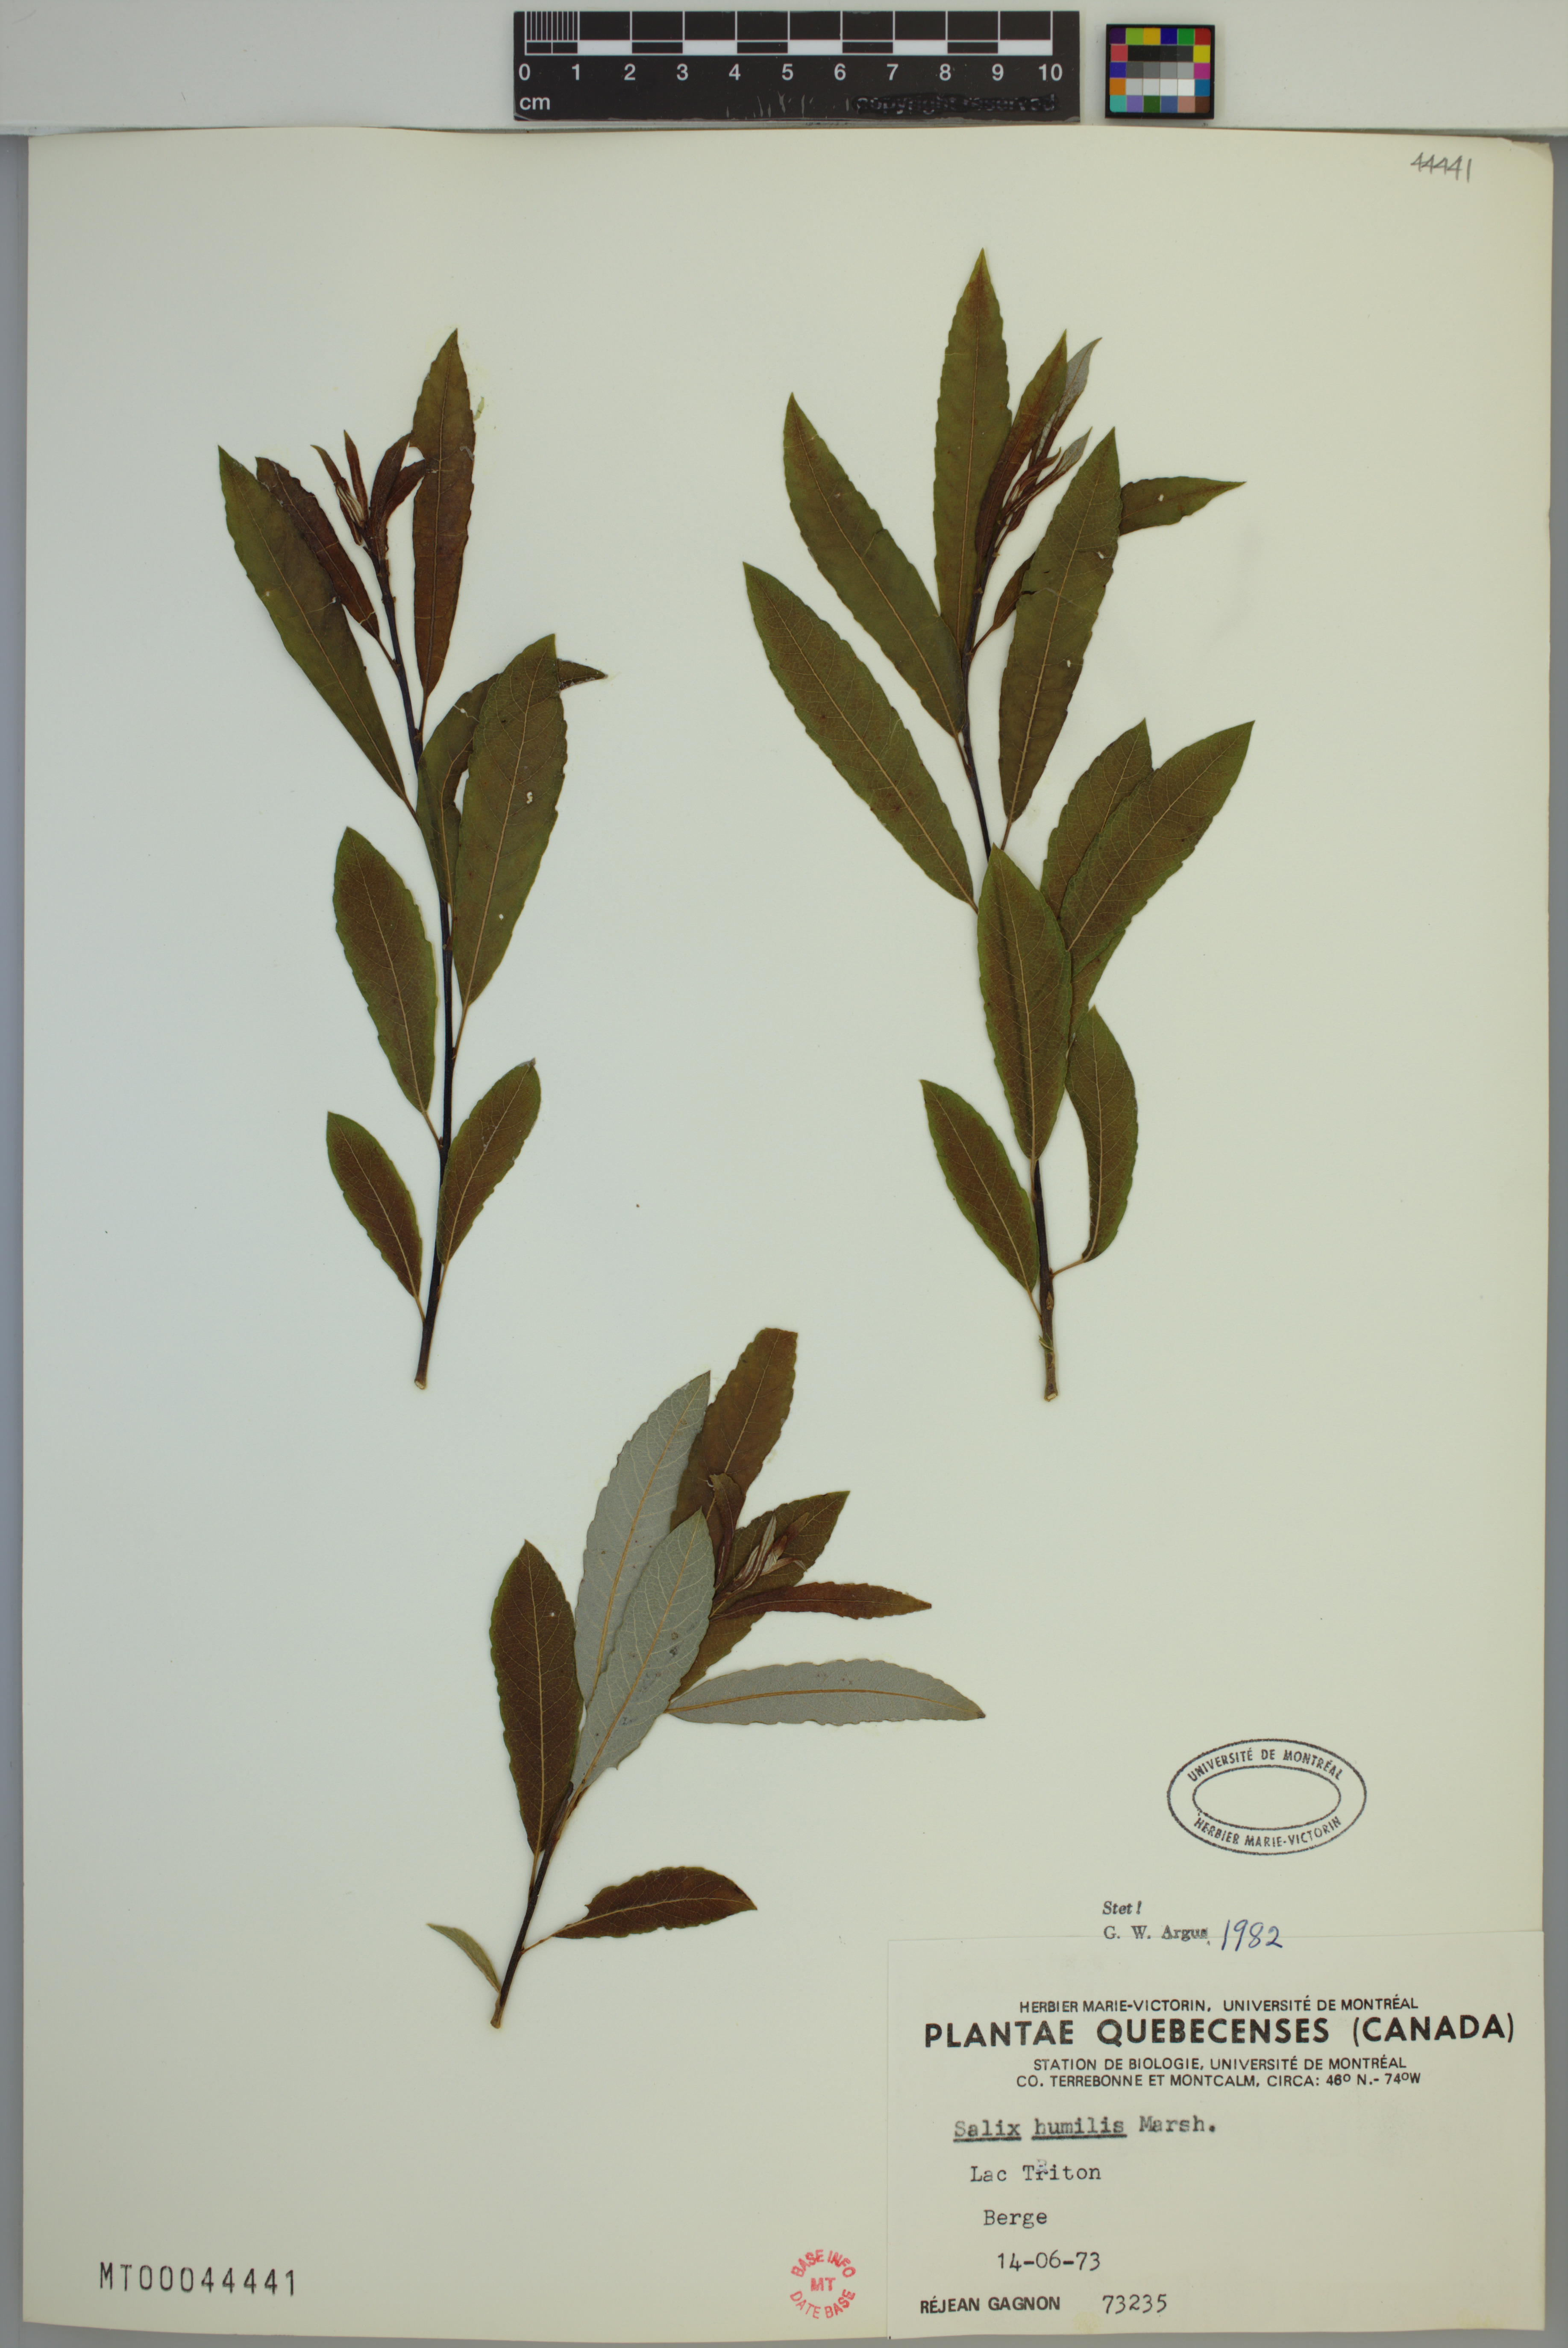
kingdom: Plantae
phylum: Tracheophyta
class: Magnoliopsida
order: Malpighiales
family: Salicaceae
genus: Salix
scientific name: Salix humilis
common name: Prairie willow
